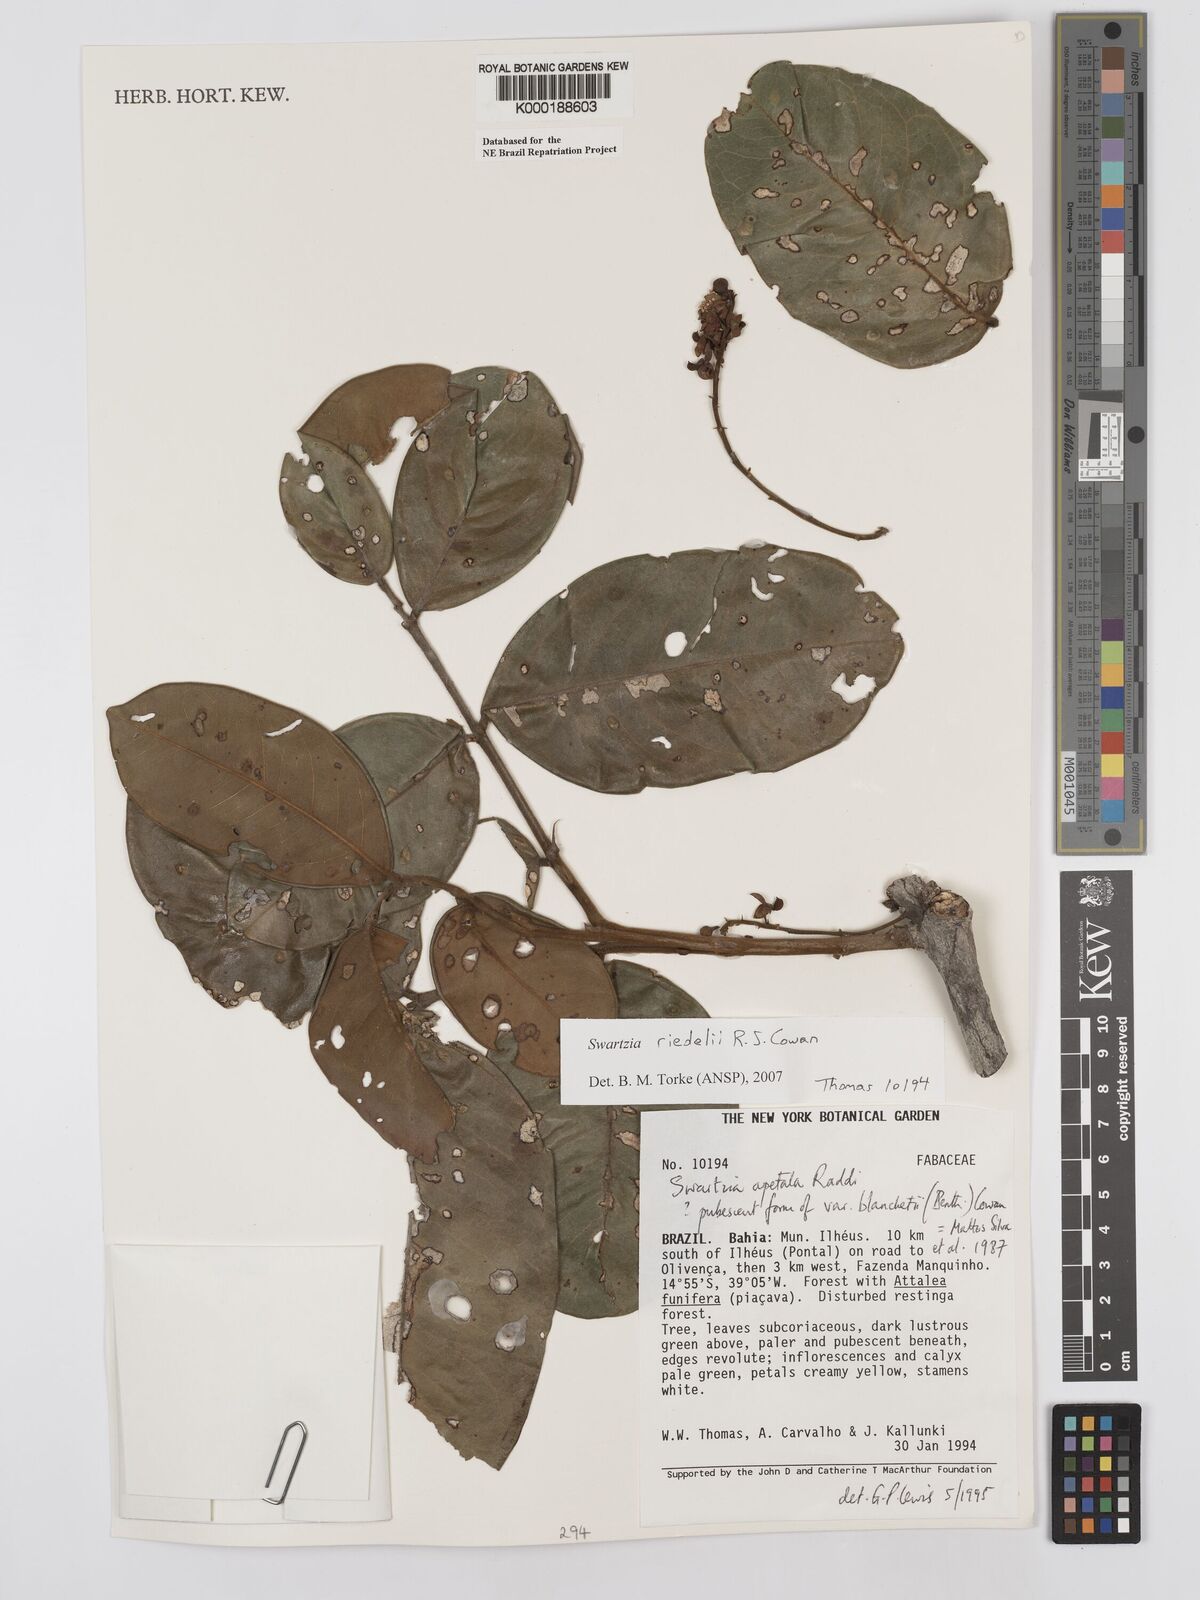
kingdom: Plantae
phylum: Tracheophyta
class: Magnoliopsida
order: Fabales
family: Fabaceae
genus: Swartzia
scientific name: Swartzia apetala
